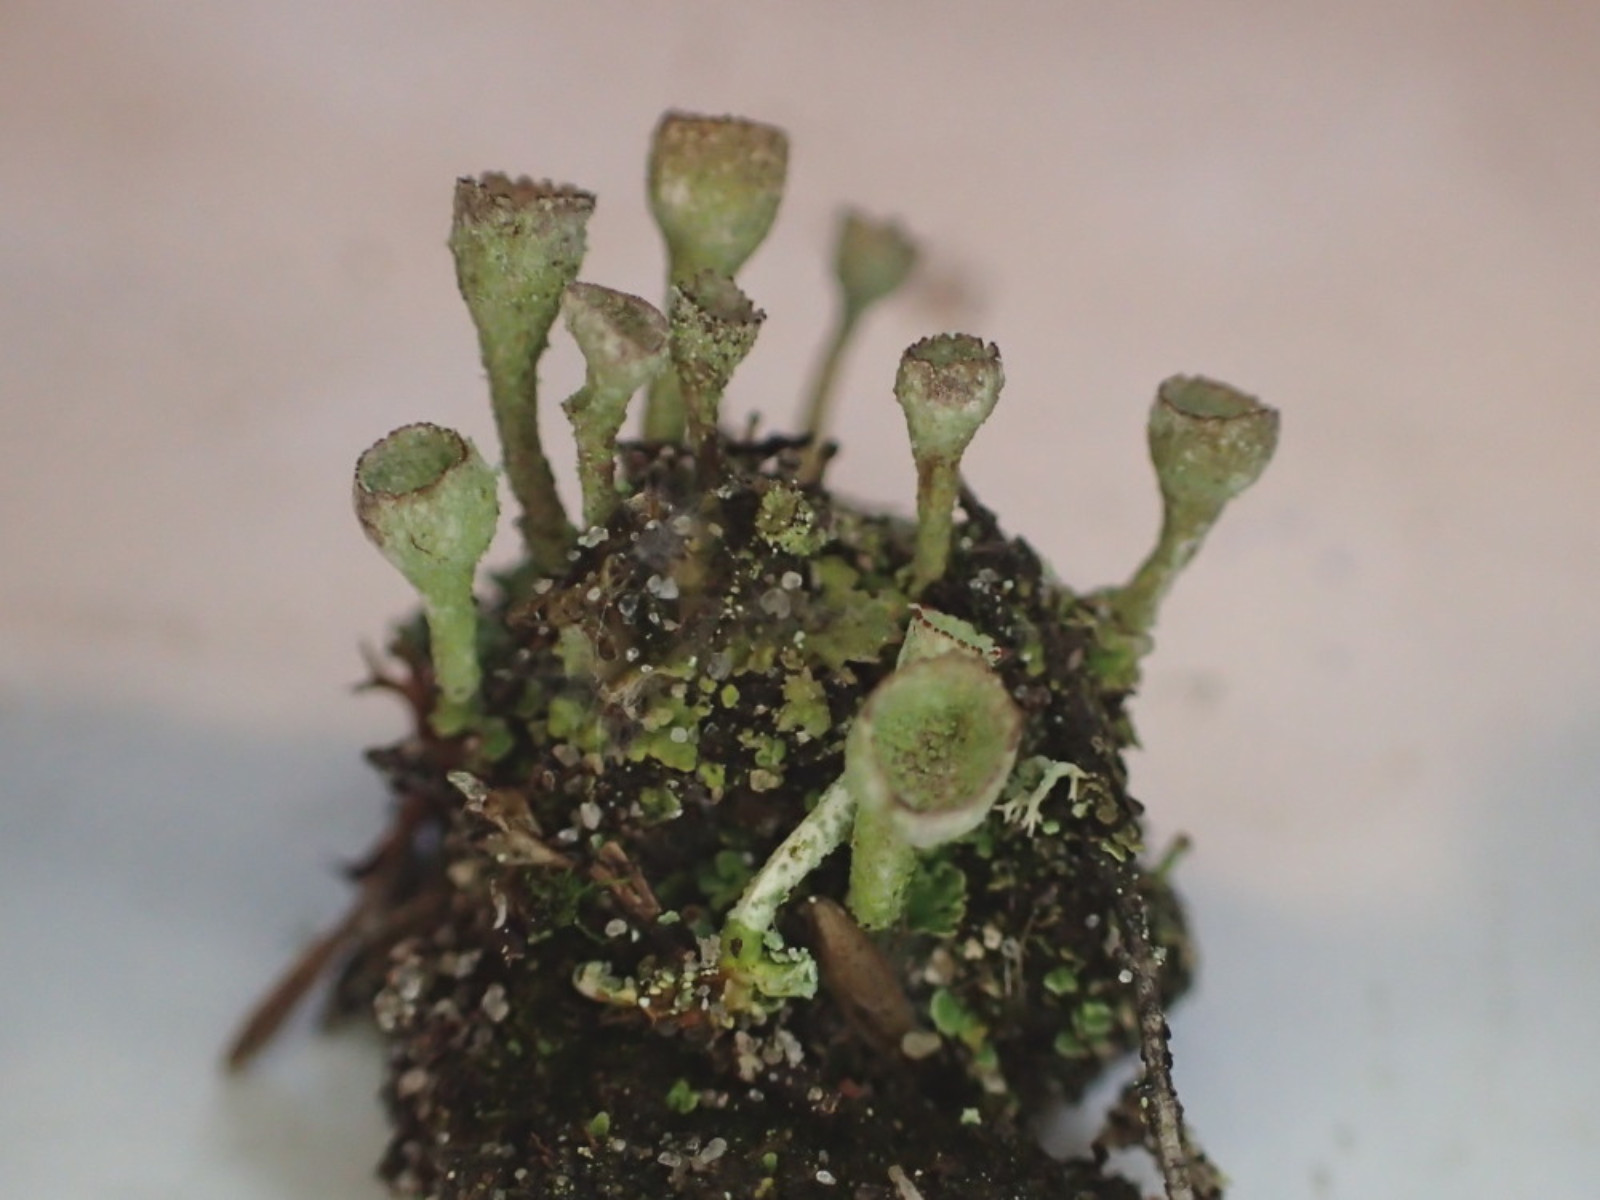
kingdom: Fungi
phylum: Ascomycota
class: Lecanoromycetes
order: Lecanorales
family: Cladoniaceae
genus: Cladonia
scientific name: Cladonia merochlorophaea
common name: mørk bægerlav
